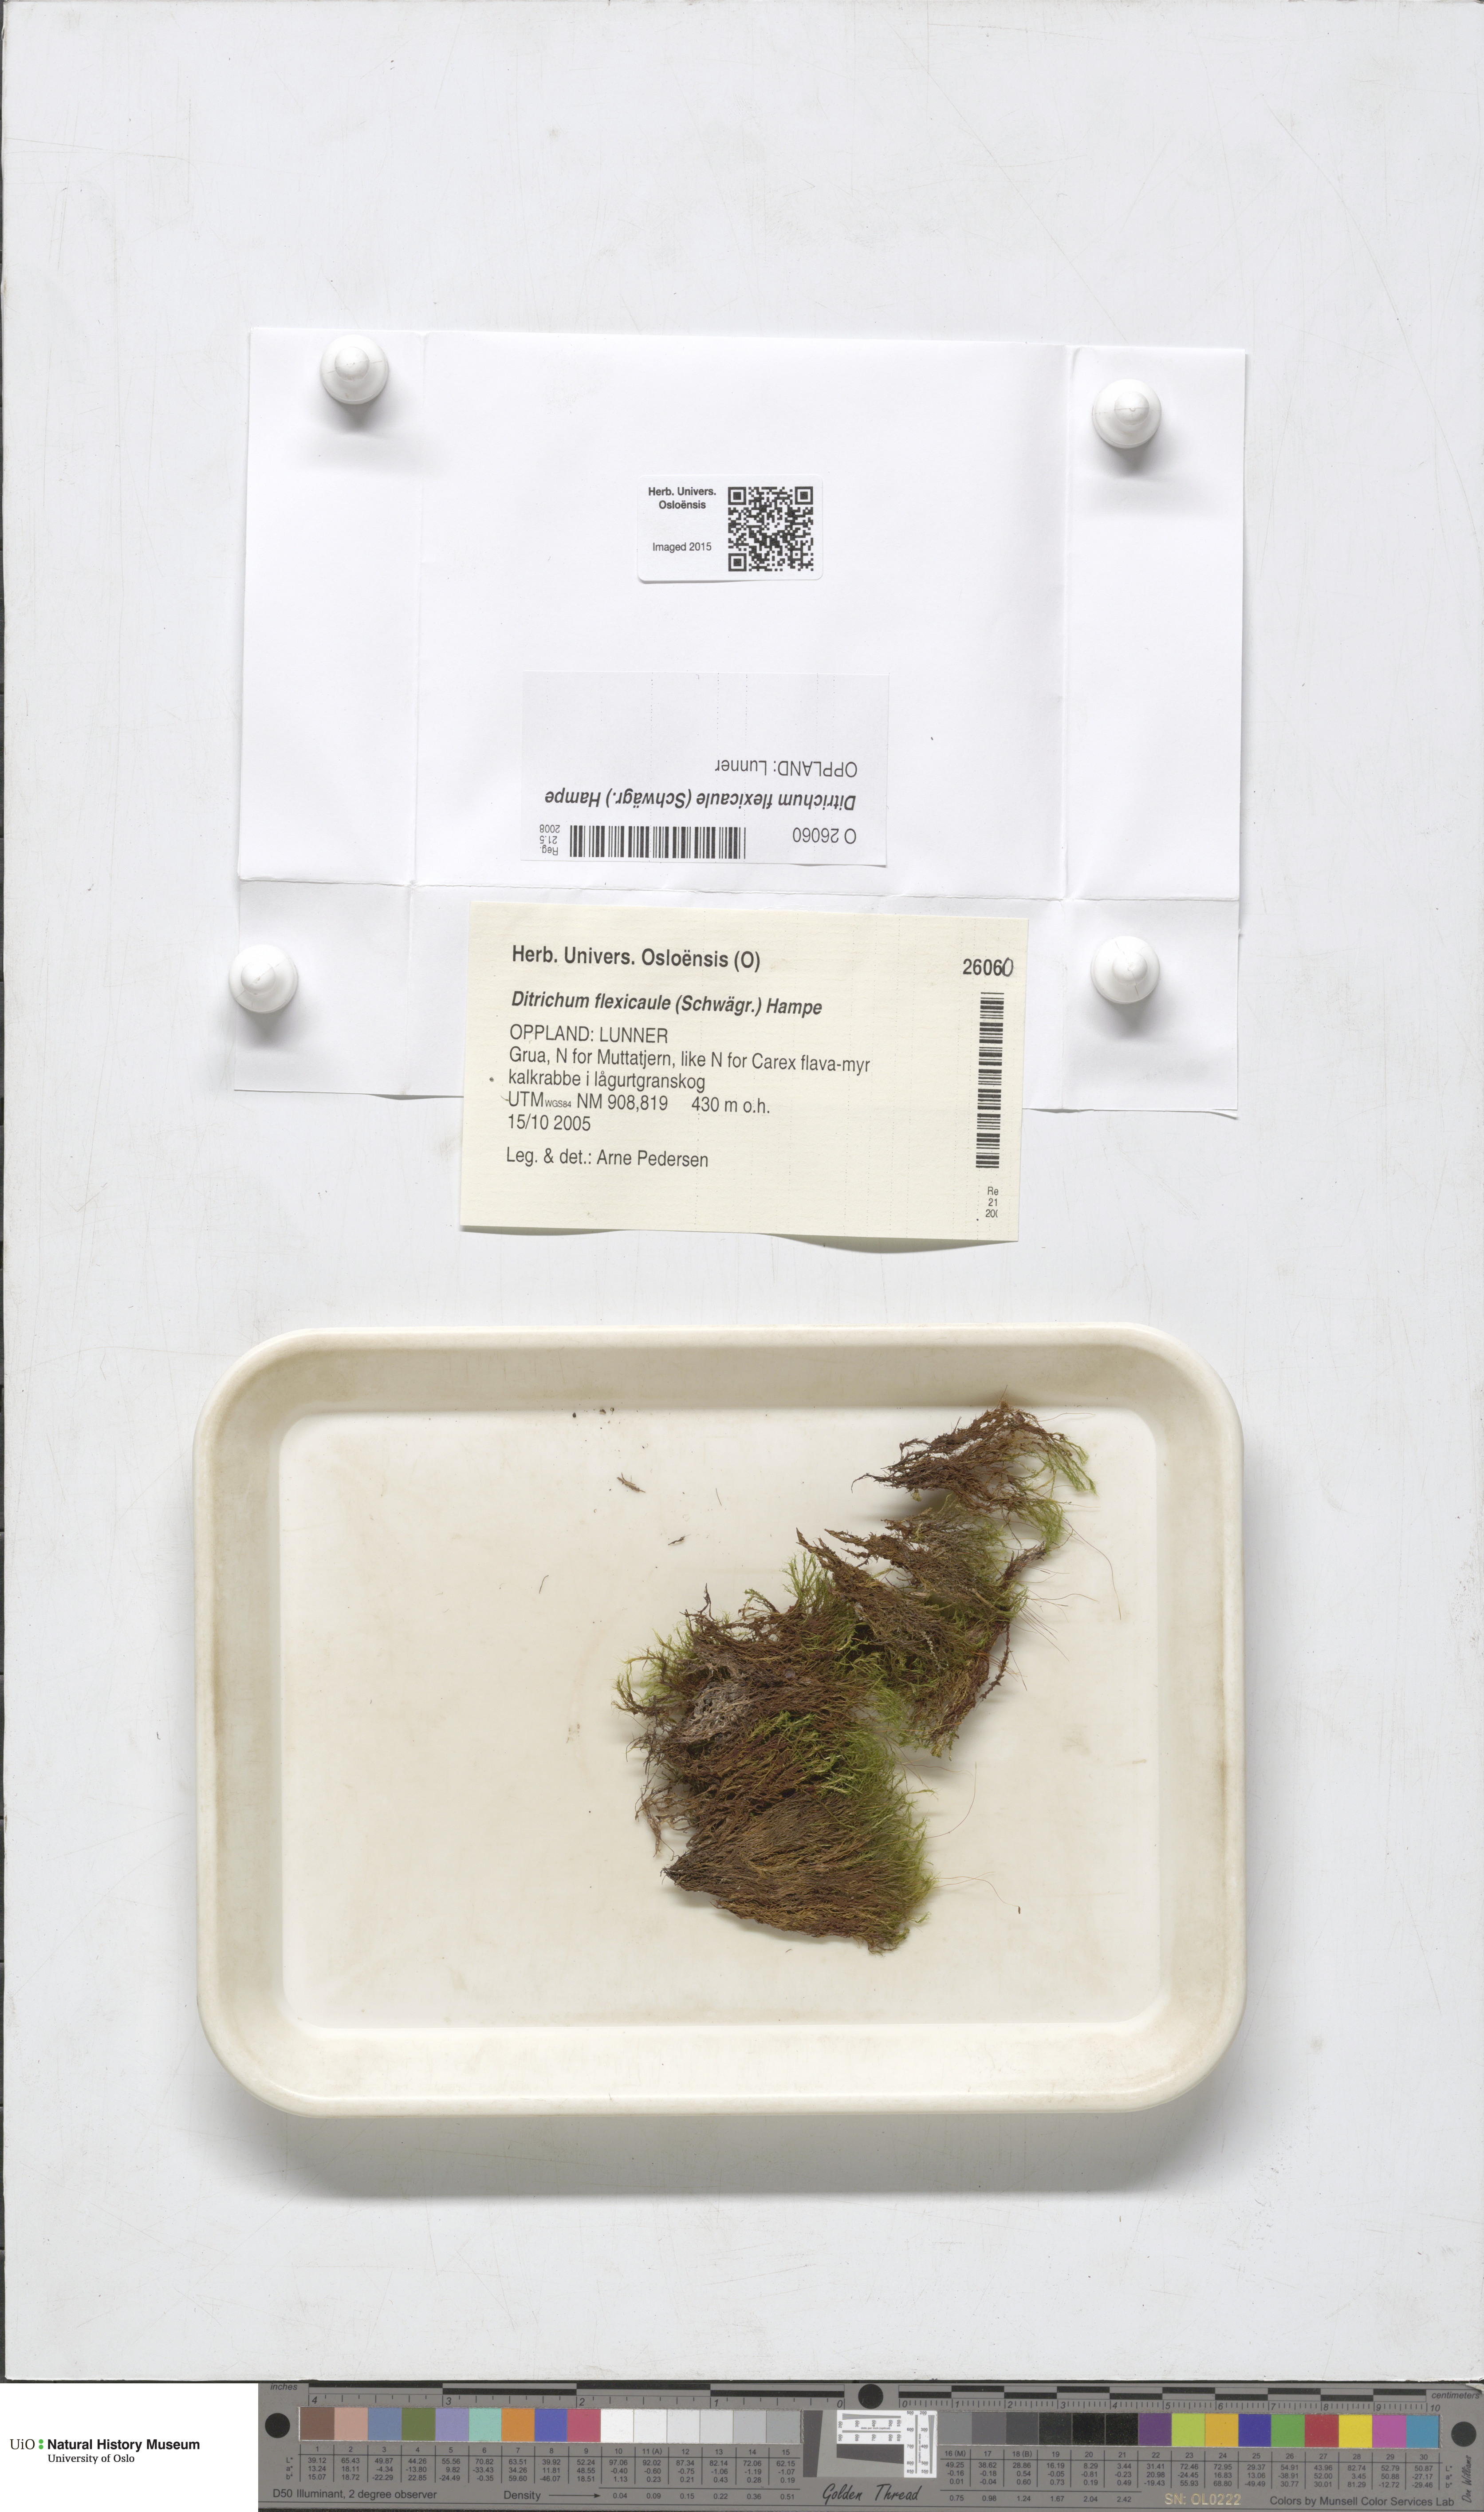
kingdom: Plantae
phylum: Bryophyta
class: Bryopsida
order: Scouleriales
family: Flexitrichaceae
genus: Flexitrichum
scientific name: Flexitrichum flexicaule
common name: Bendy ditrichum
